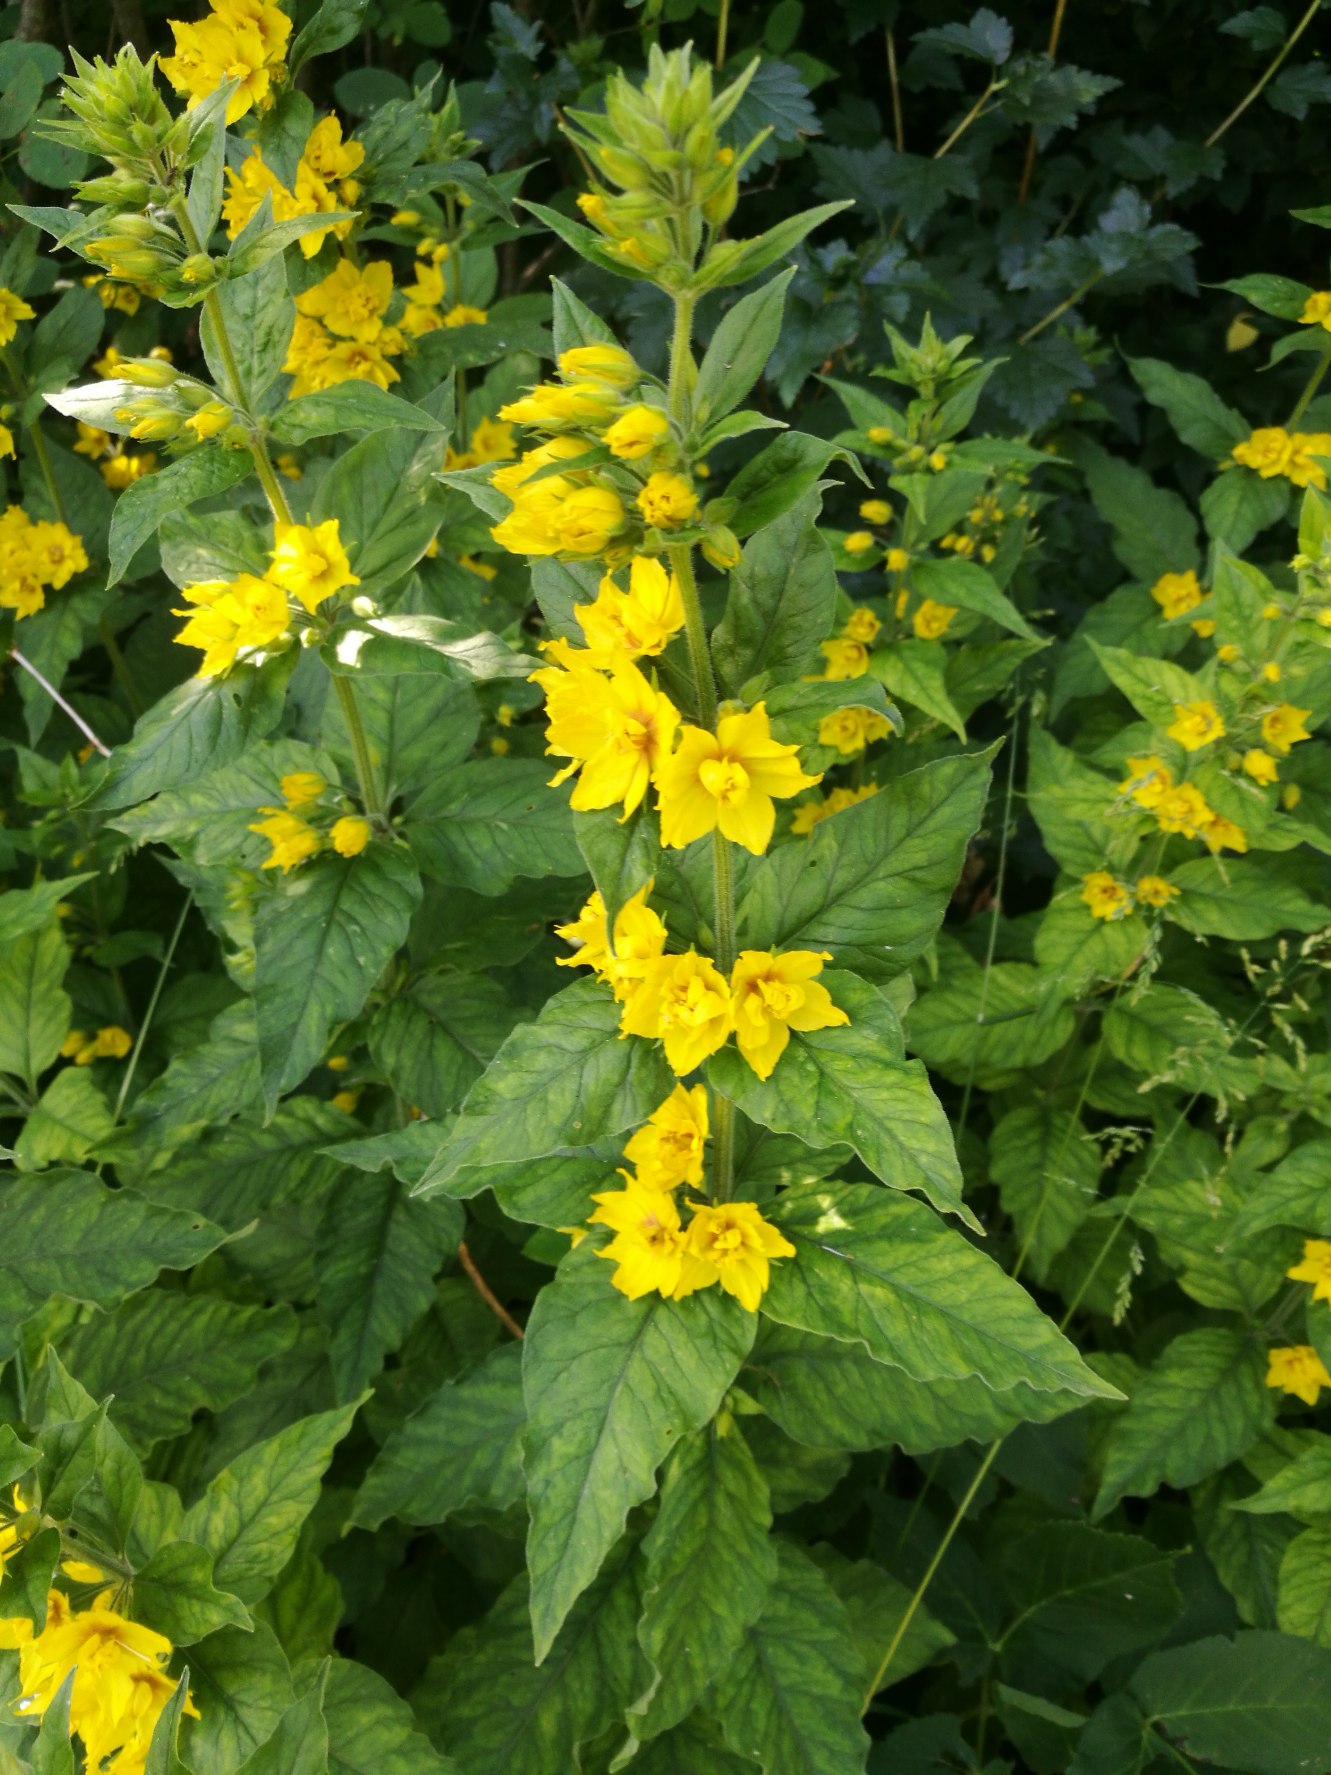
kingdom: Plantae
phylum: Tracheophyta
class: Magnoliopsida
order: Ericales
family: Primulaceae
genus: Lysimachia
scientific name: Lysimachia punctata
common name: Prikbladet fredløs
